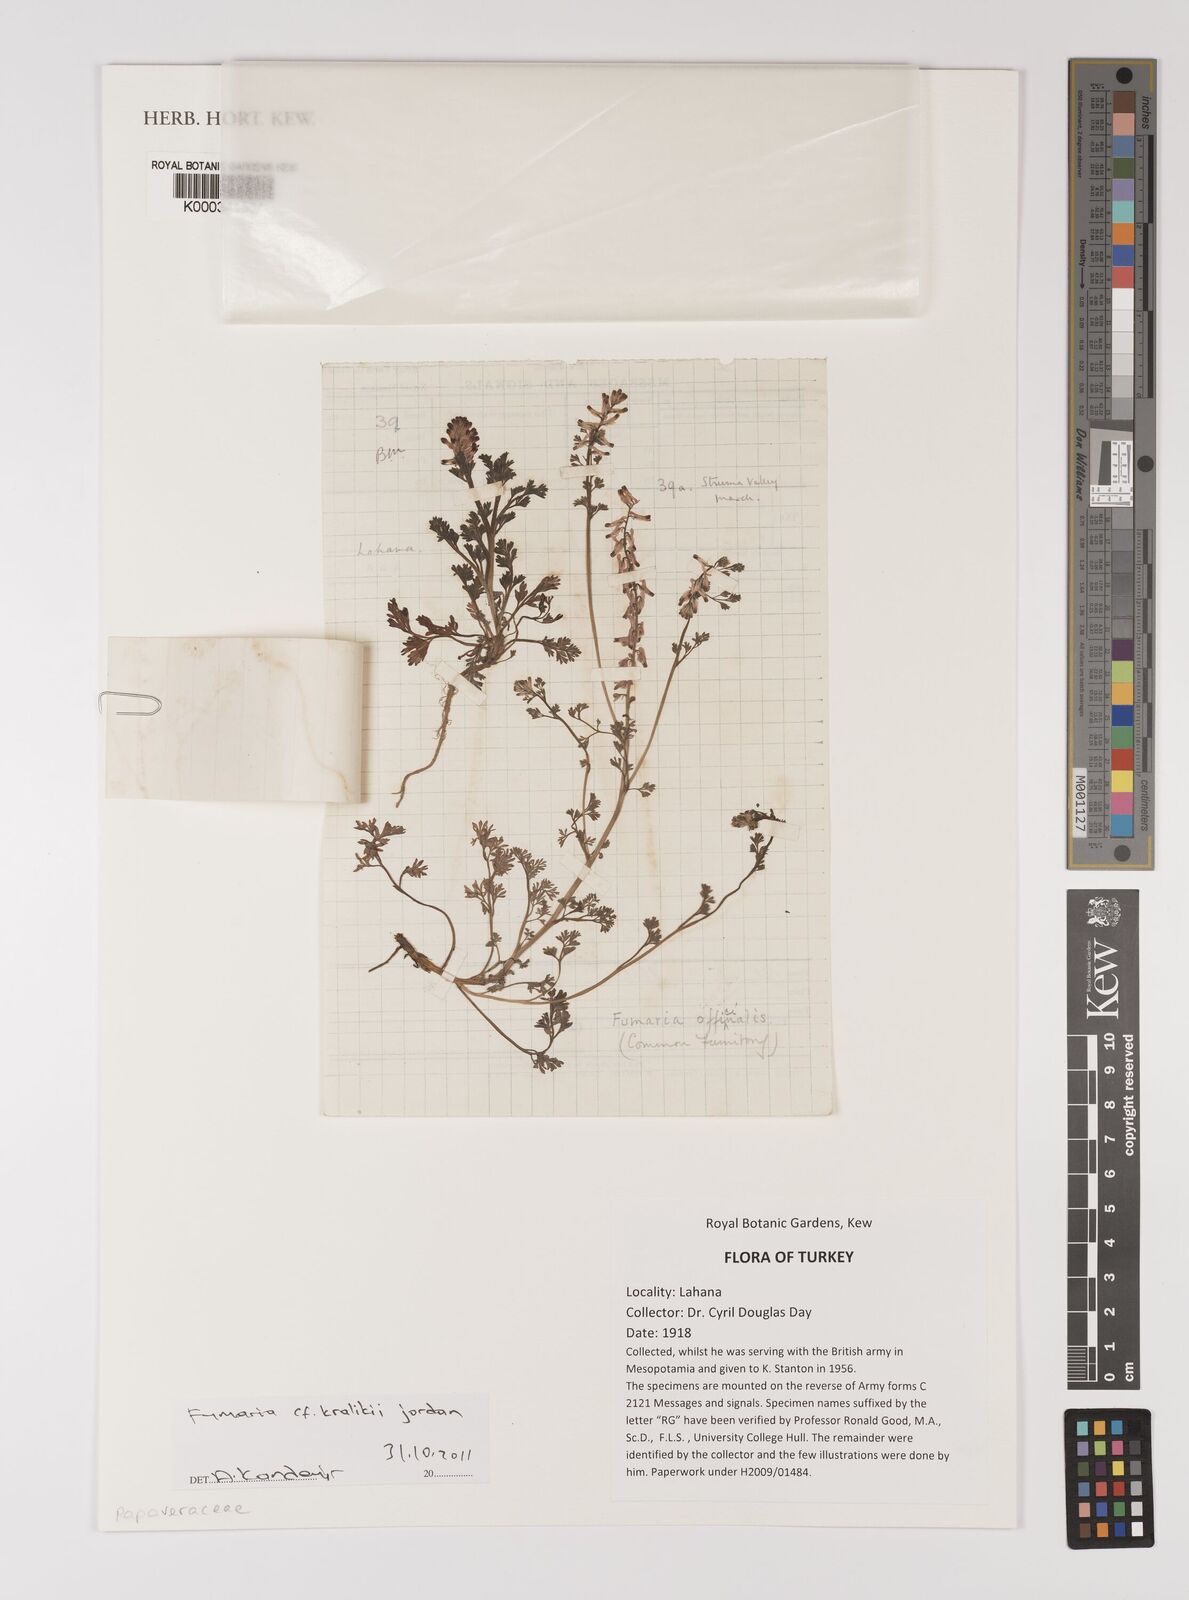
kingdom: Plantae
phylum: Tracheophyta
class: Magnoliopsida
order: Ranunculales
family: Papaveraceae
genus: Fumaria
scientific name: Fumaria kralikii
